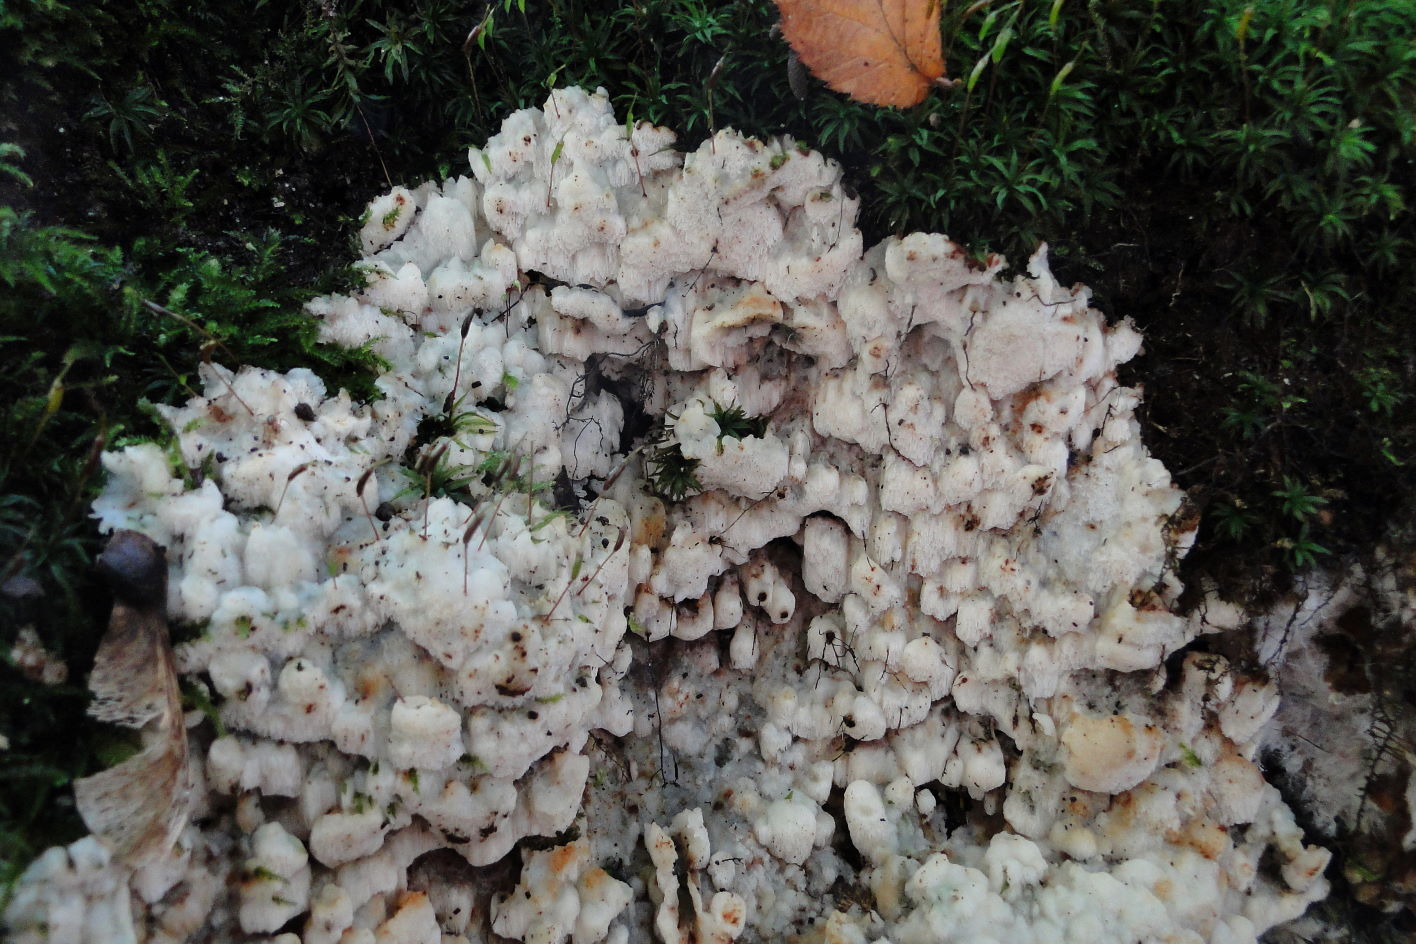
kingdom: Fungi
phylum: Basidiomycota
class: Agaricomycetes
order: Polyporales
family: Meruliaceae
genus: Physisporinus
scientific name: Physisporinus vitreus
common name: mastesvamp
